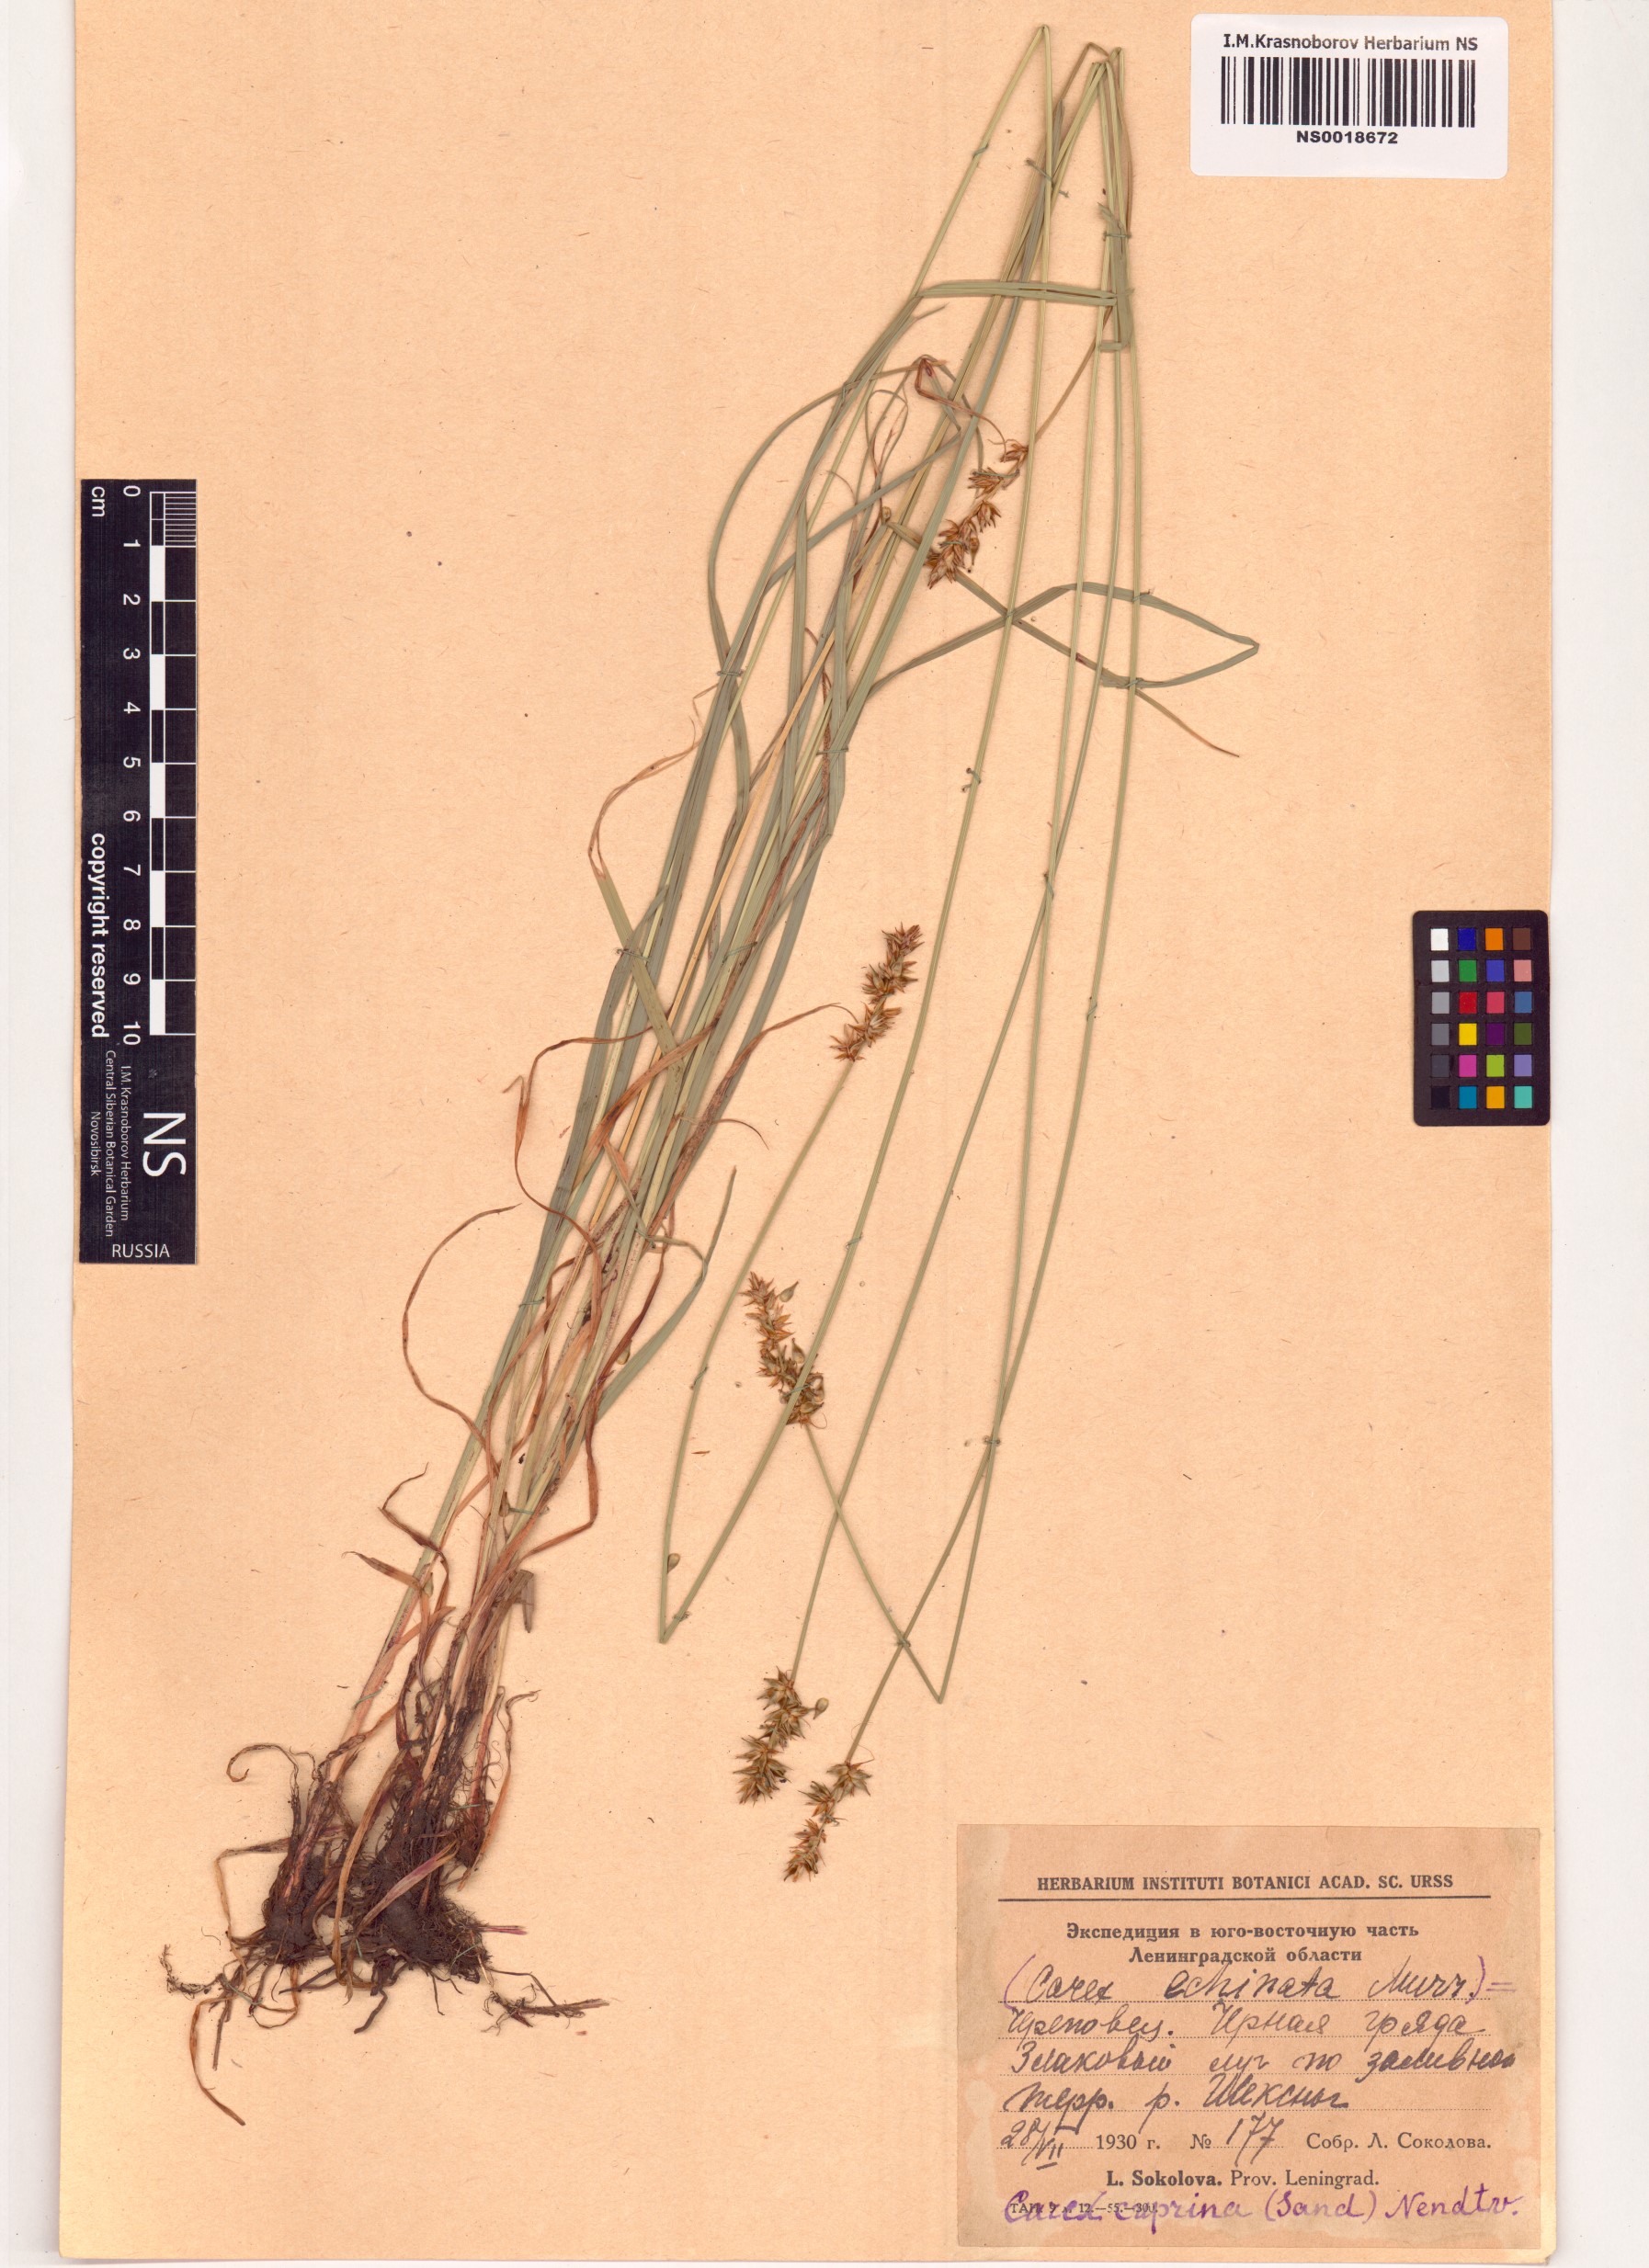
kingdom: Plantae
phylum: Tracheophyta
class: Liliopsida
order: Poales
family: Cyperaceae
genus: Carex
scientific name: Carex leersii
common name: Leers' sedge
